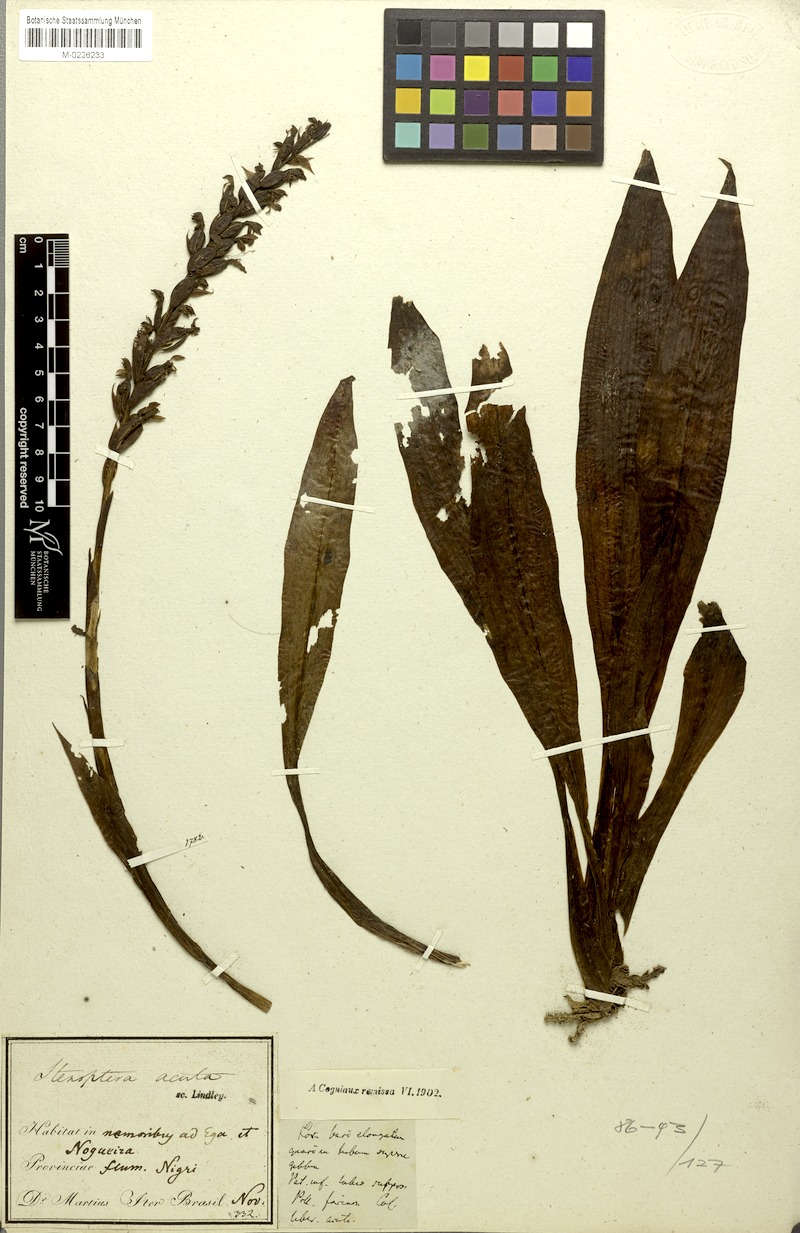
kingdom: Plantae
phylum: Tracheophyta
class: Liliopsida
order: Asparagales
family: Orchidaceae
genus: Stenoptera
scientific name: Stenoptera acuta
